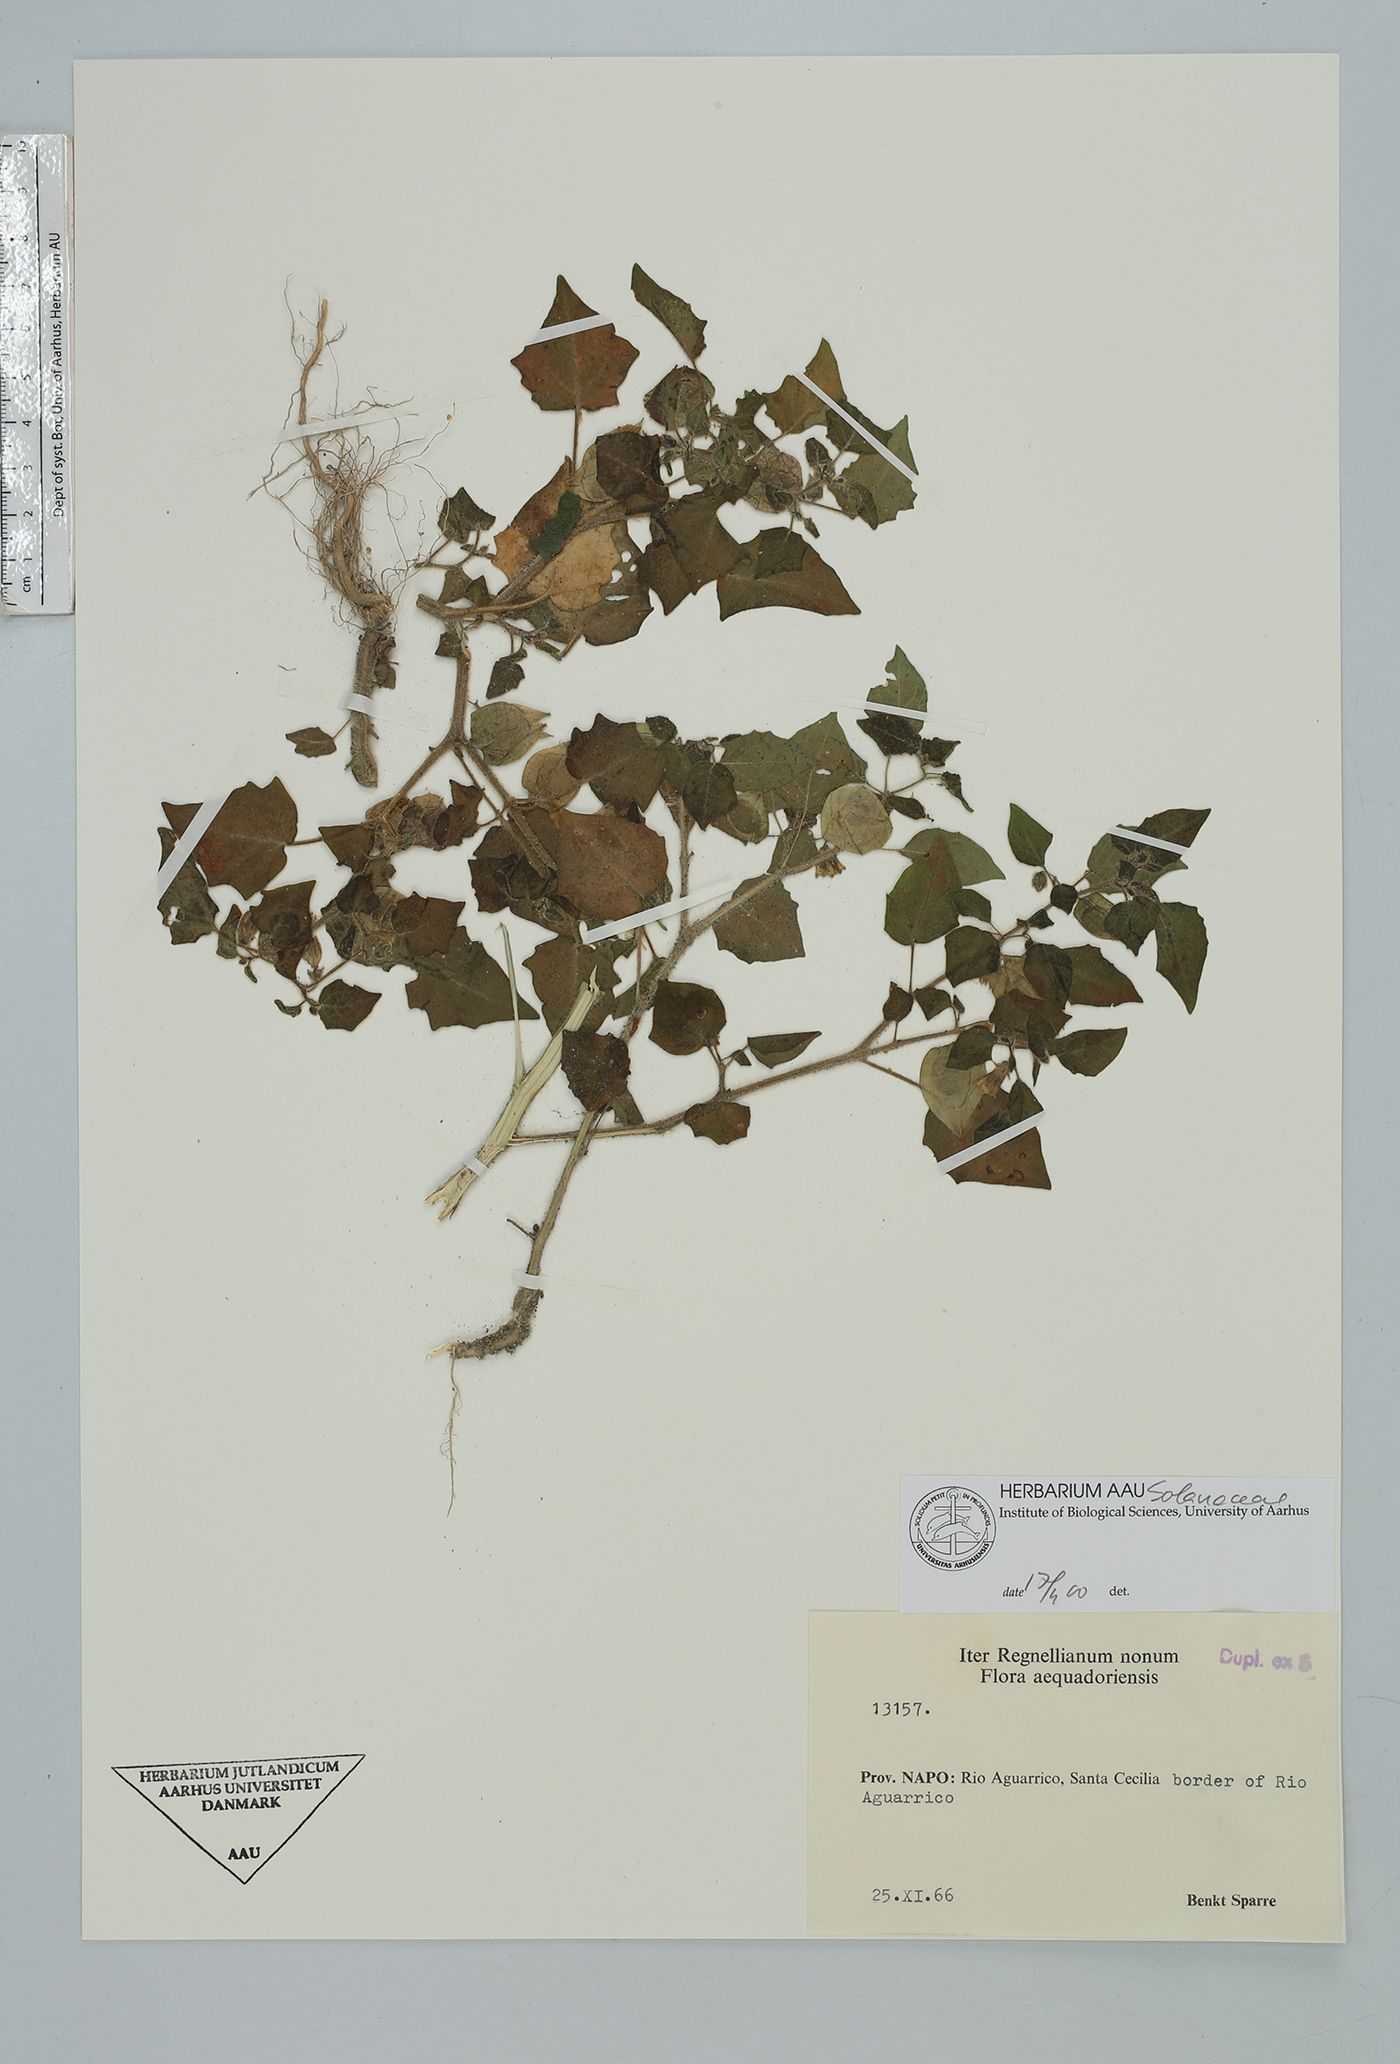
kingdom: Plantae
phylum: Tracheophyta
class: Magnoliopsida
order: Solanales
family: Solanaceae
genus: Physalis
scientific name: Physalis
